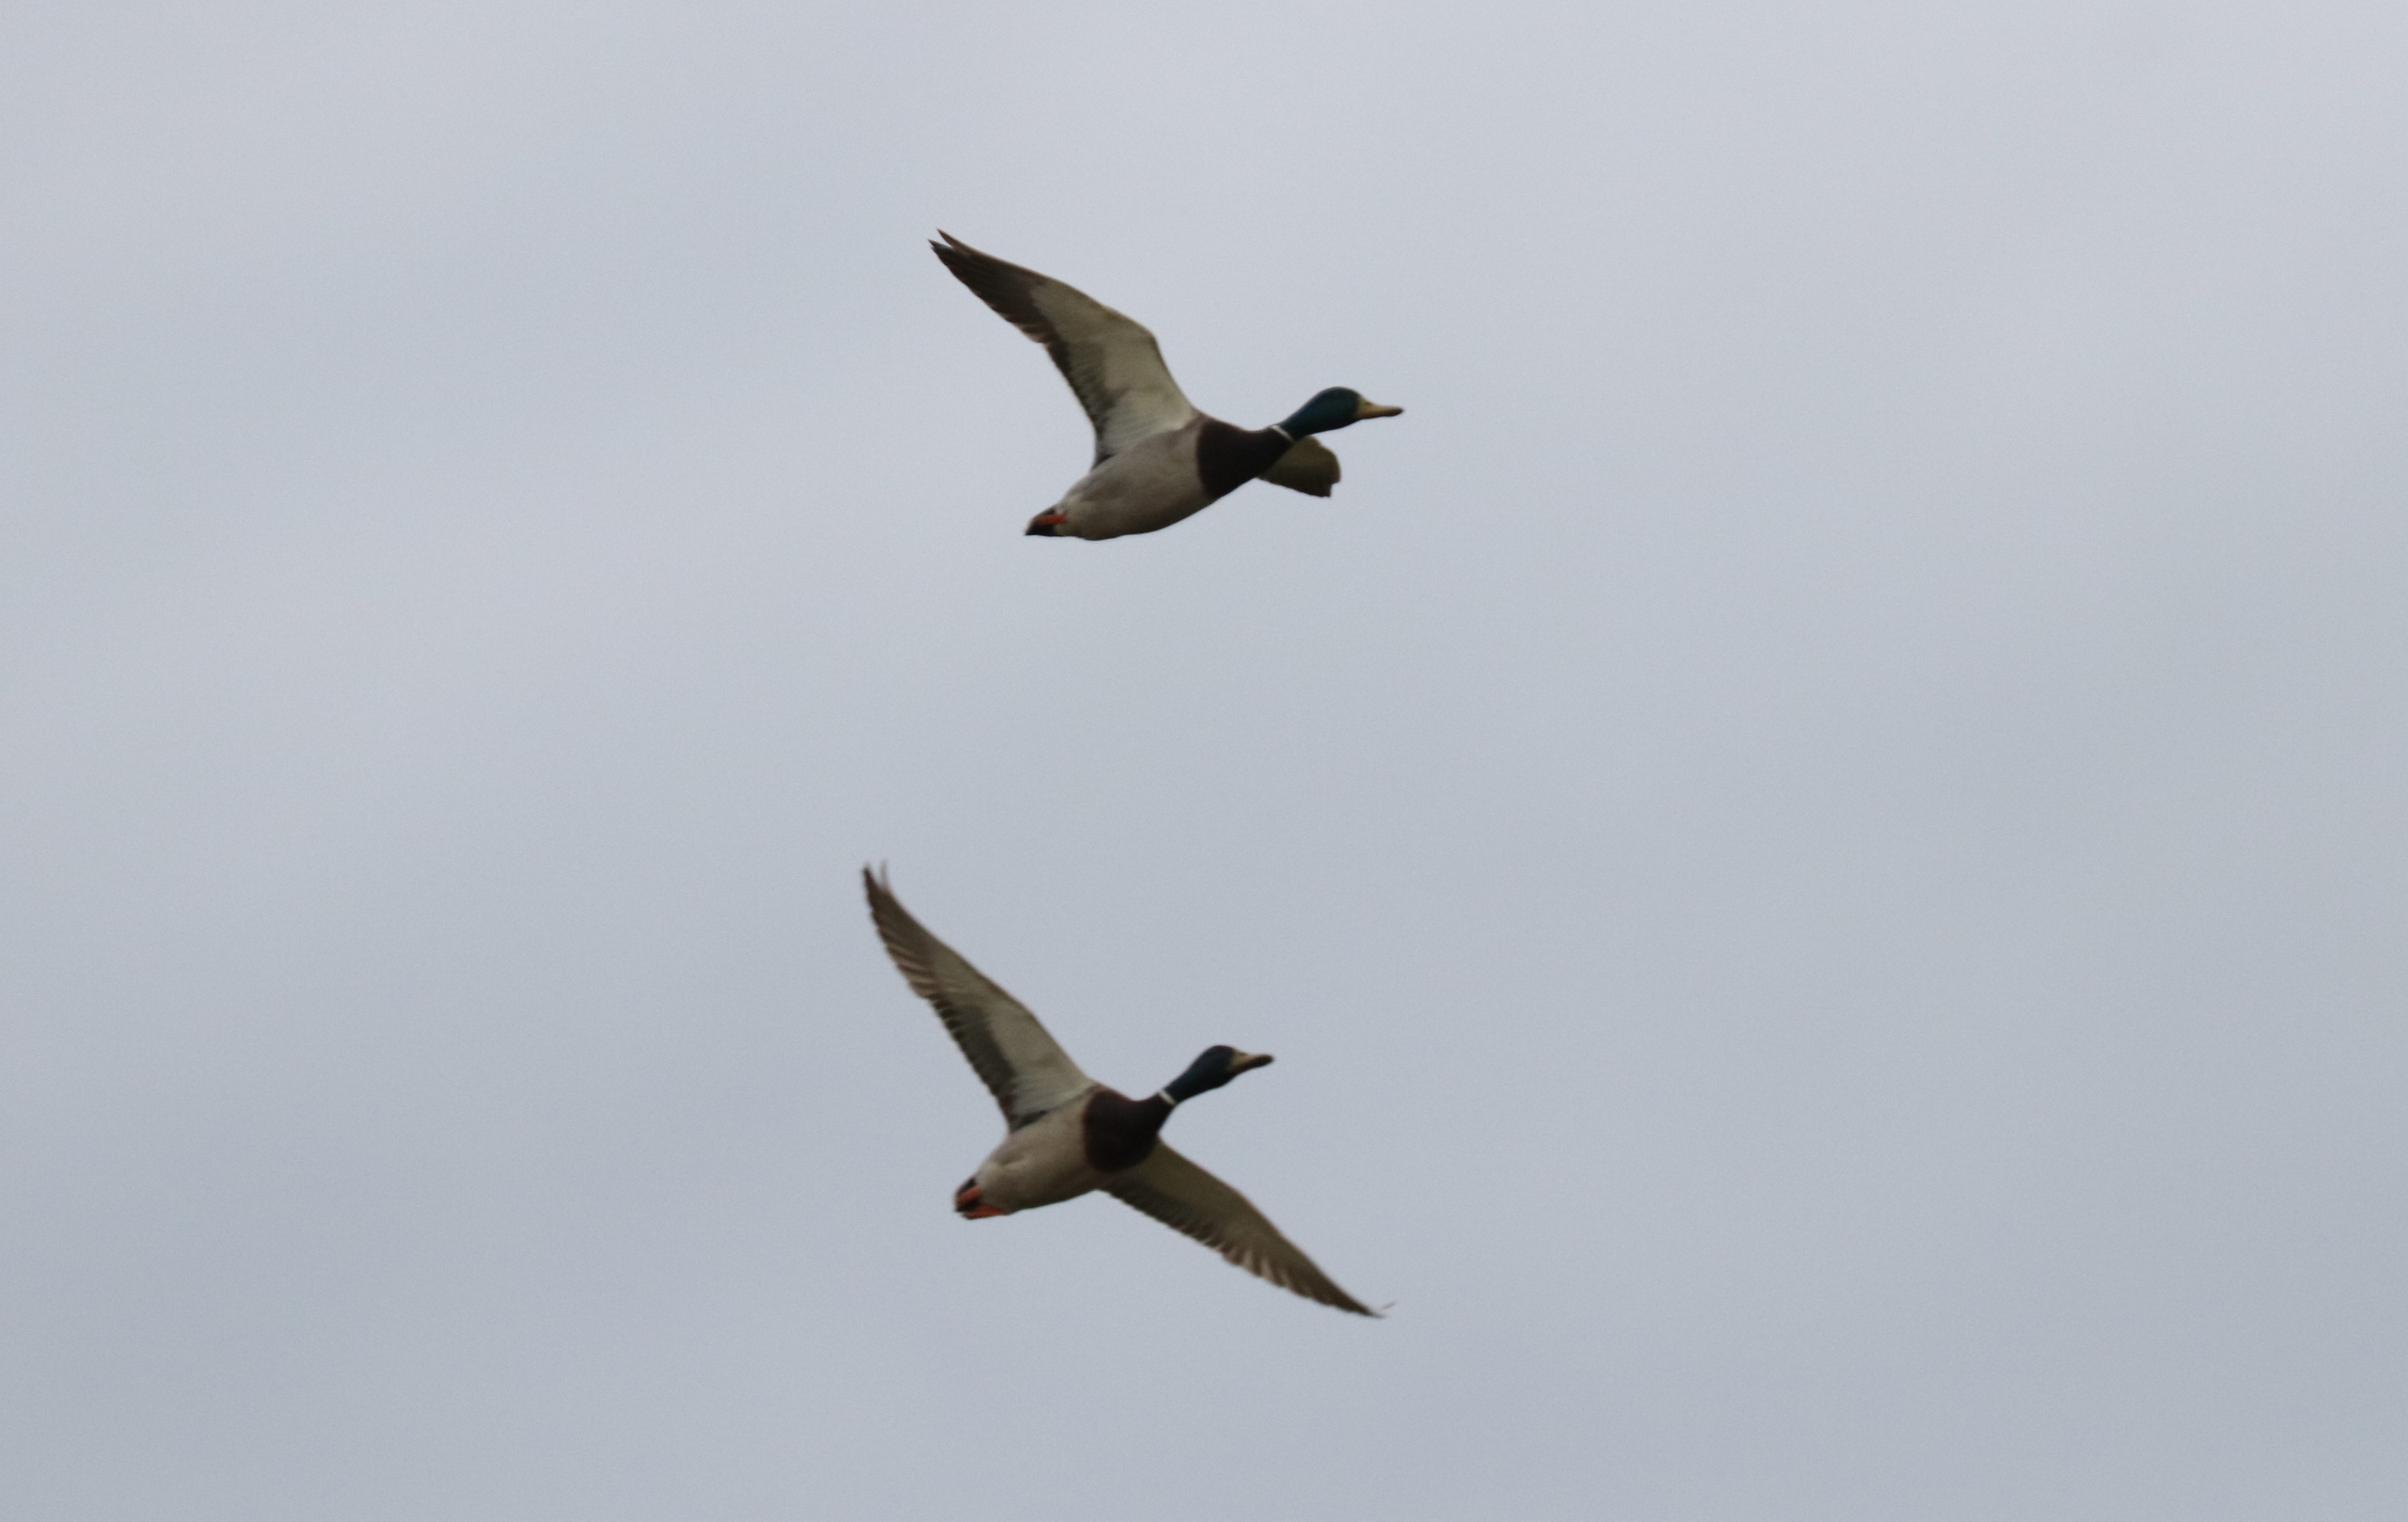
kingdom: Animalia
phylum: Chordata
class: Aves
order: Anseriformes
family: Anatidae
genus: Anas
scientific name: Anas platyrhynchos
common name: Gråand
